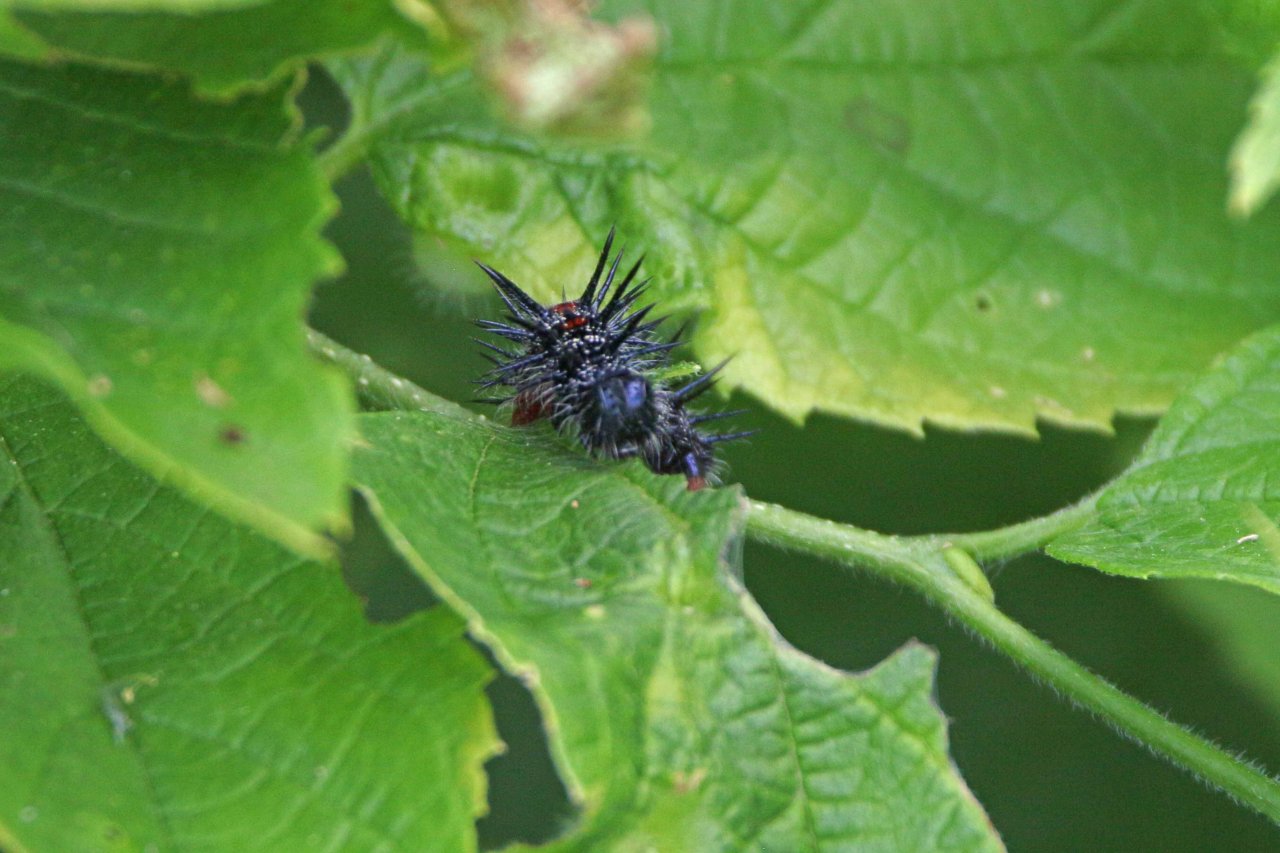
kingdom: Animalia
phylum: Arthropoda
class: Insecta
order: Lepidoptera
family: Nymphalidae
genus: Nymphalis
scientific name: Nymphalis antiopa
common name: Mourning Cloak
